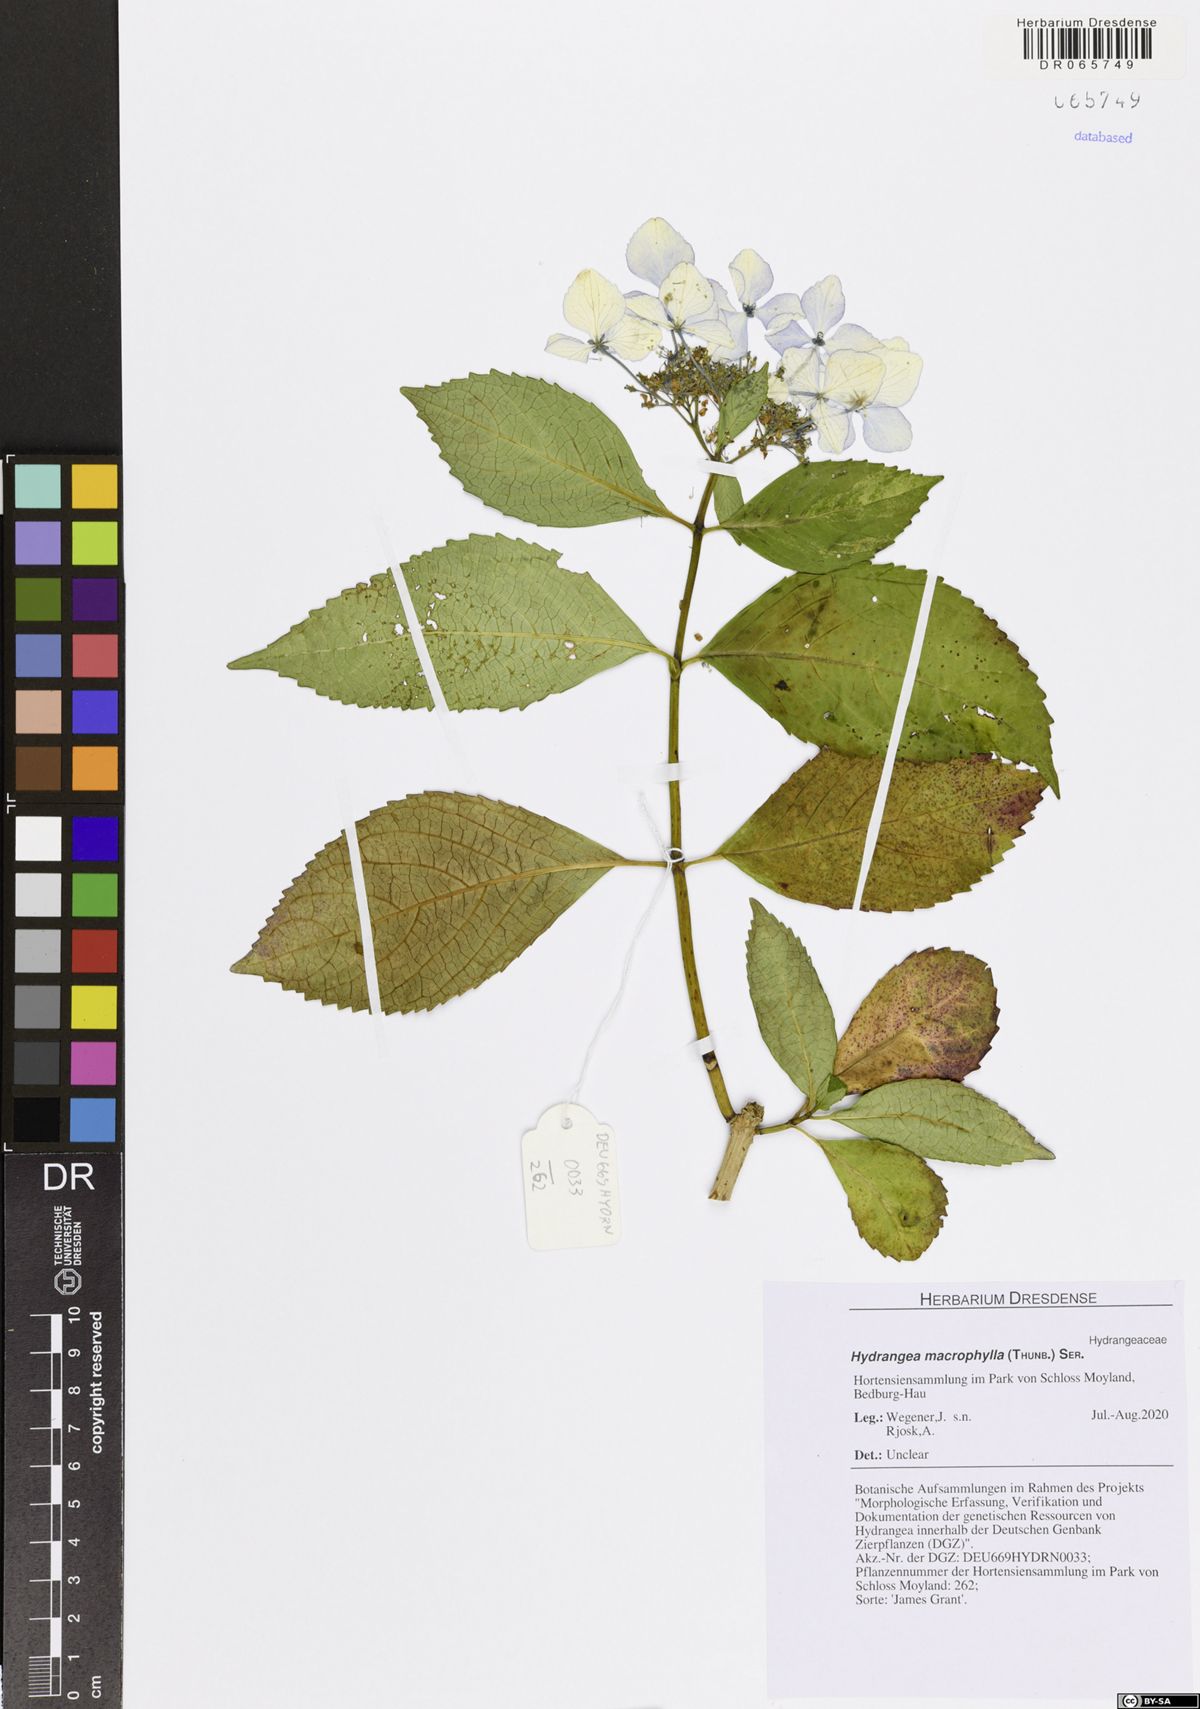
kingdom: Plantae
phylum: Tracheophyta
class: Magnoliopsida
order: Cornales
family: Hydrangeaceae
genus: Hydrangea
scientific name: Hydrangea macrophylla
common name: Hydrangea
